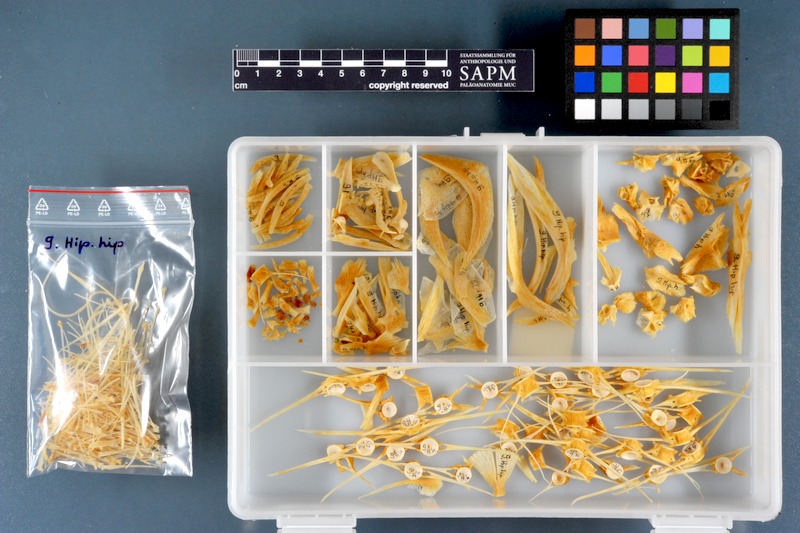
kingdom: Animalia
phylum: Chordata
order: Pleuronectiformes
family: Pleuronectidae
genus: Hippoglossus
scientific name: Hippoglossus hippoglossus
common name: Atlantic halibut
